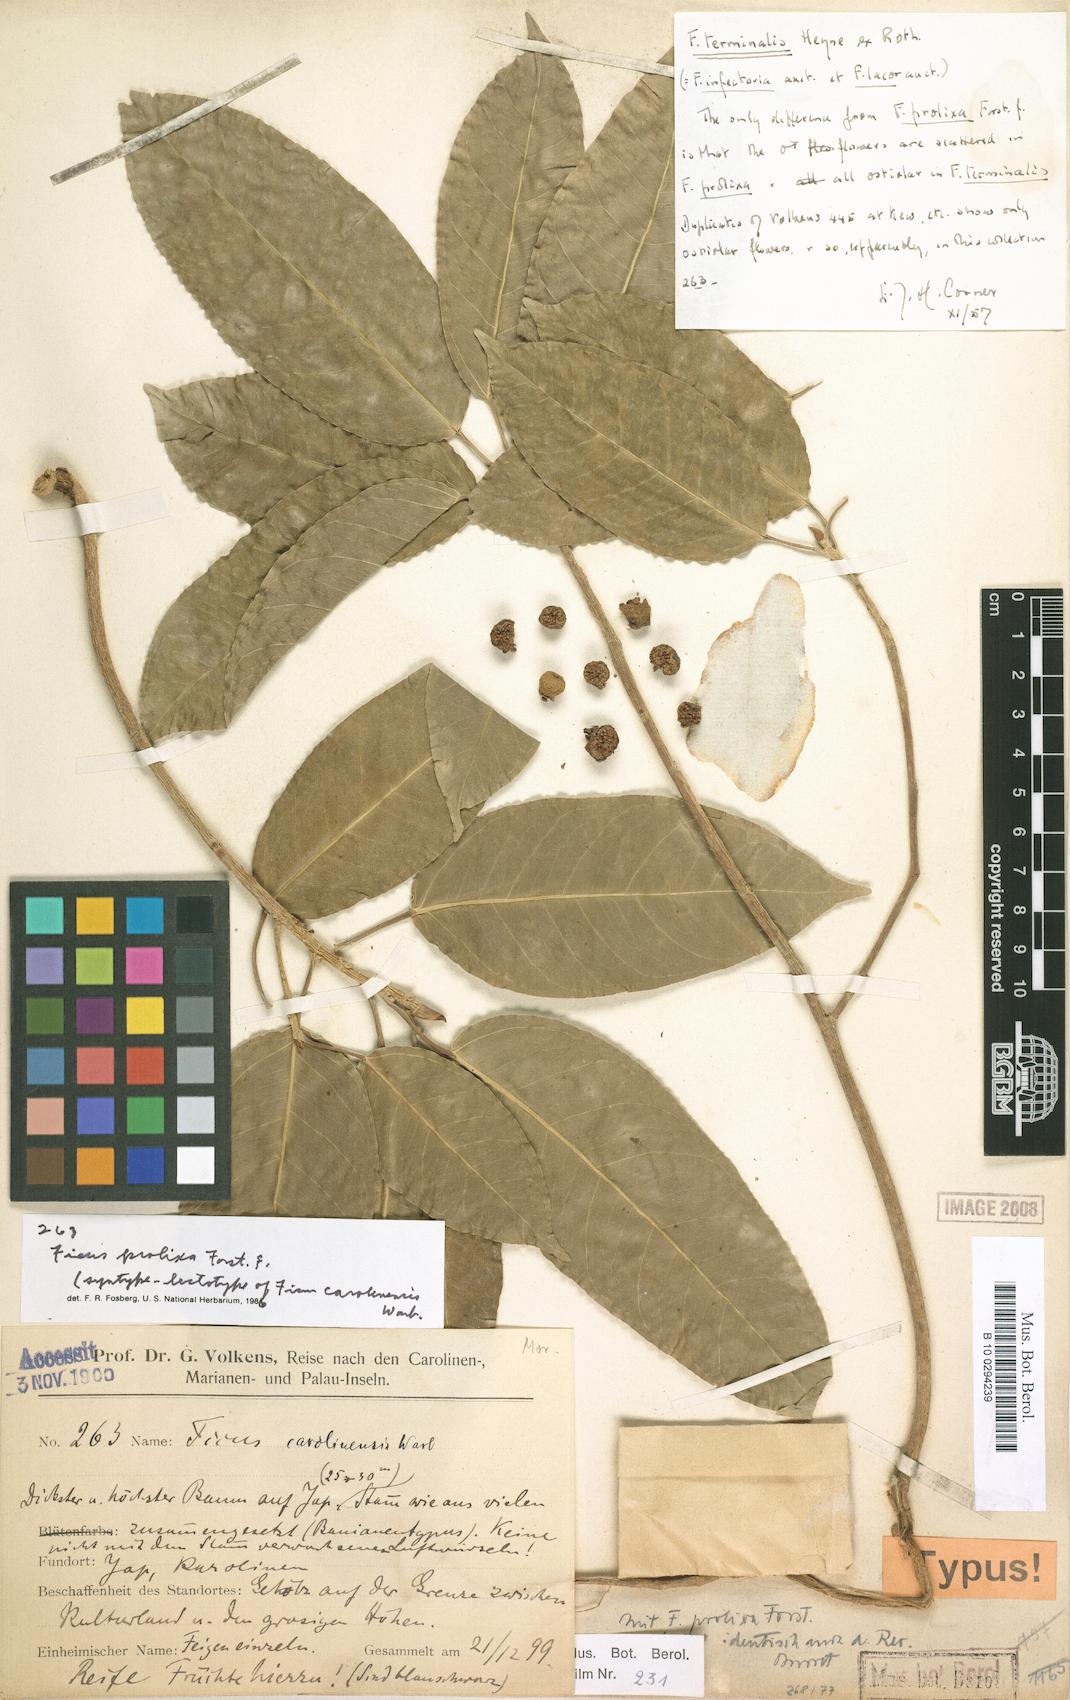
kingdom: Plantae
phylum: Tracheophyta
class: Magnoliopsida
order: Rosales
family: Moraceae
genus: Ficus
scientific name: Ficus prolixa
